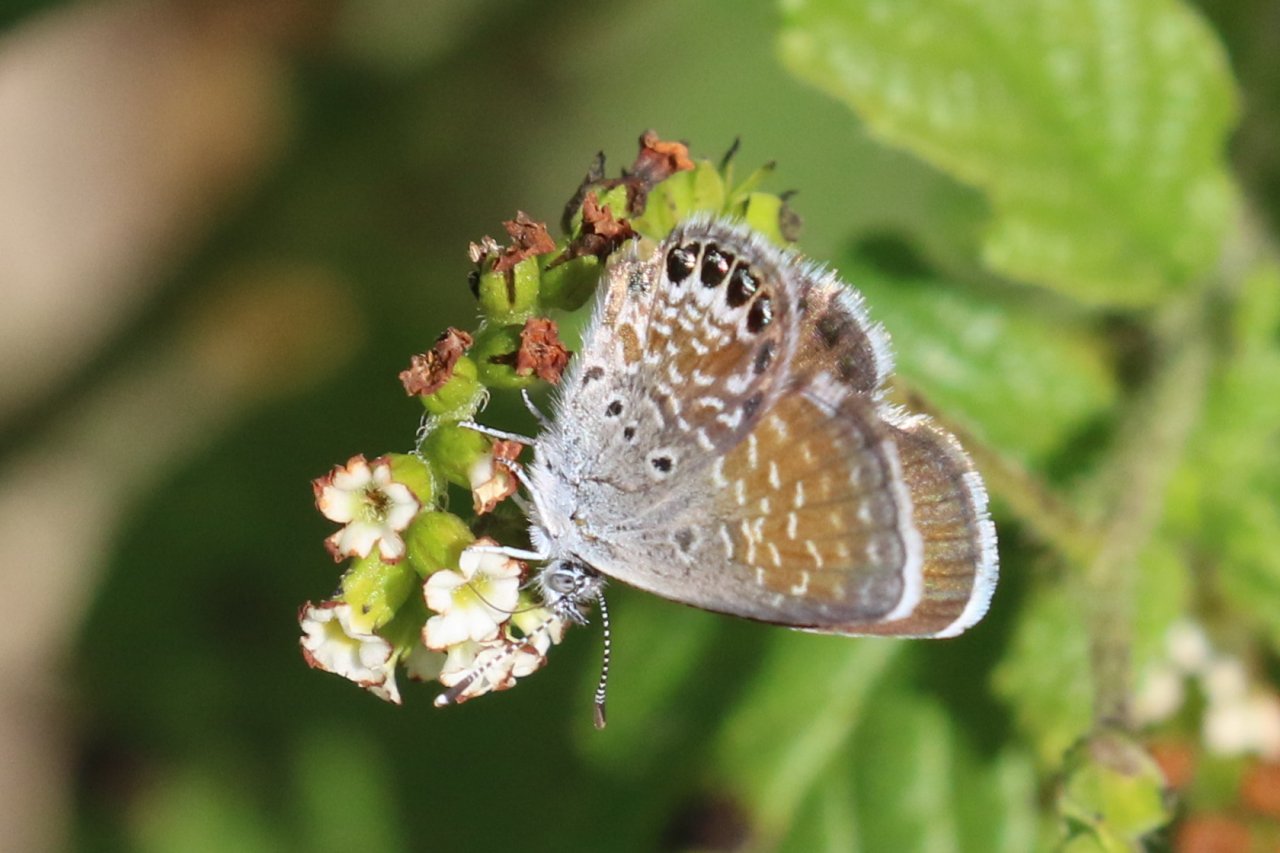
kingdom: Animalia
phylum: Arthropoda
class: Insecta
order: Lepidoptera
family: Lycaenidae
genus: Brephidium
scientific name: Brephidium exilis
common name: Western Pygmy-Blue
